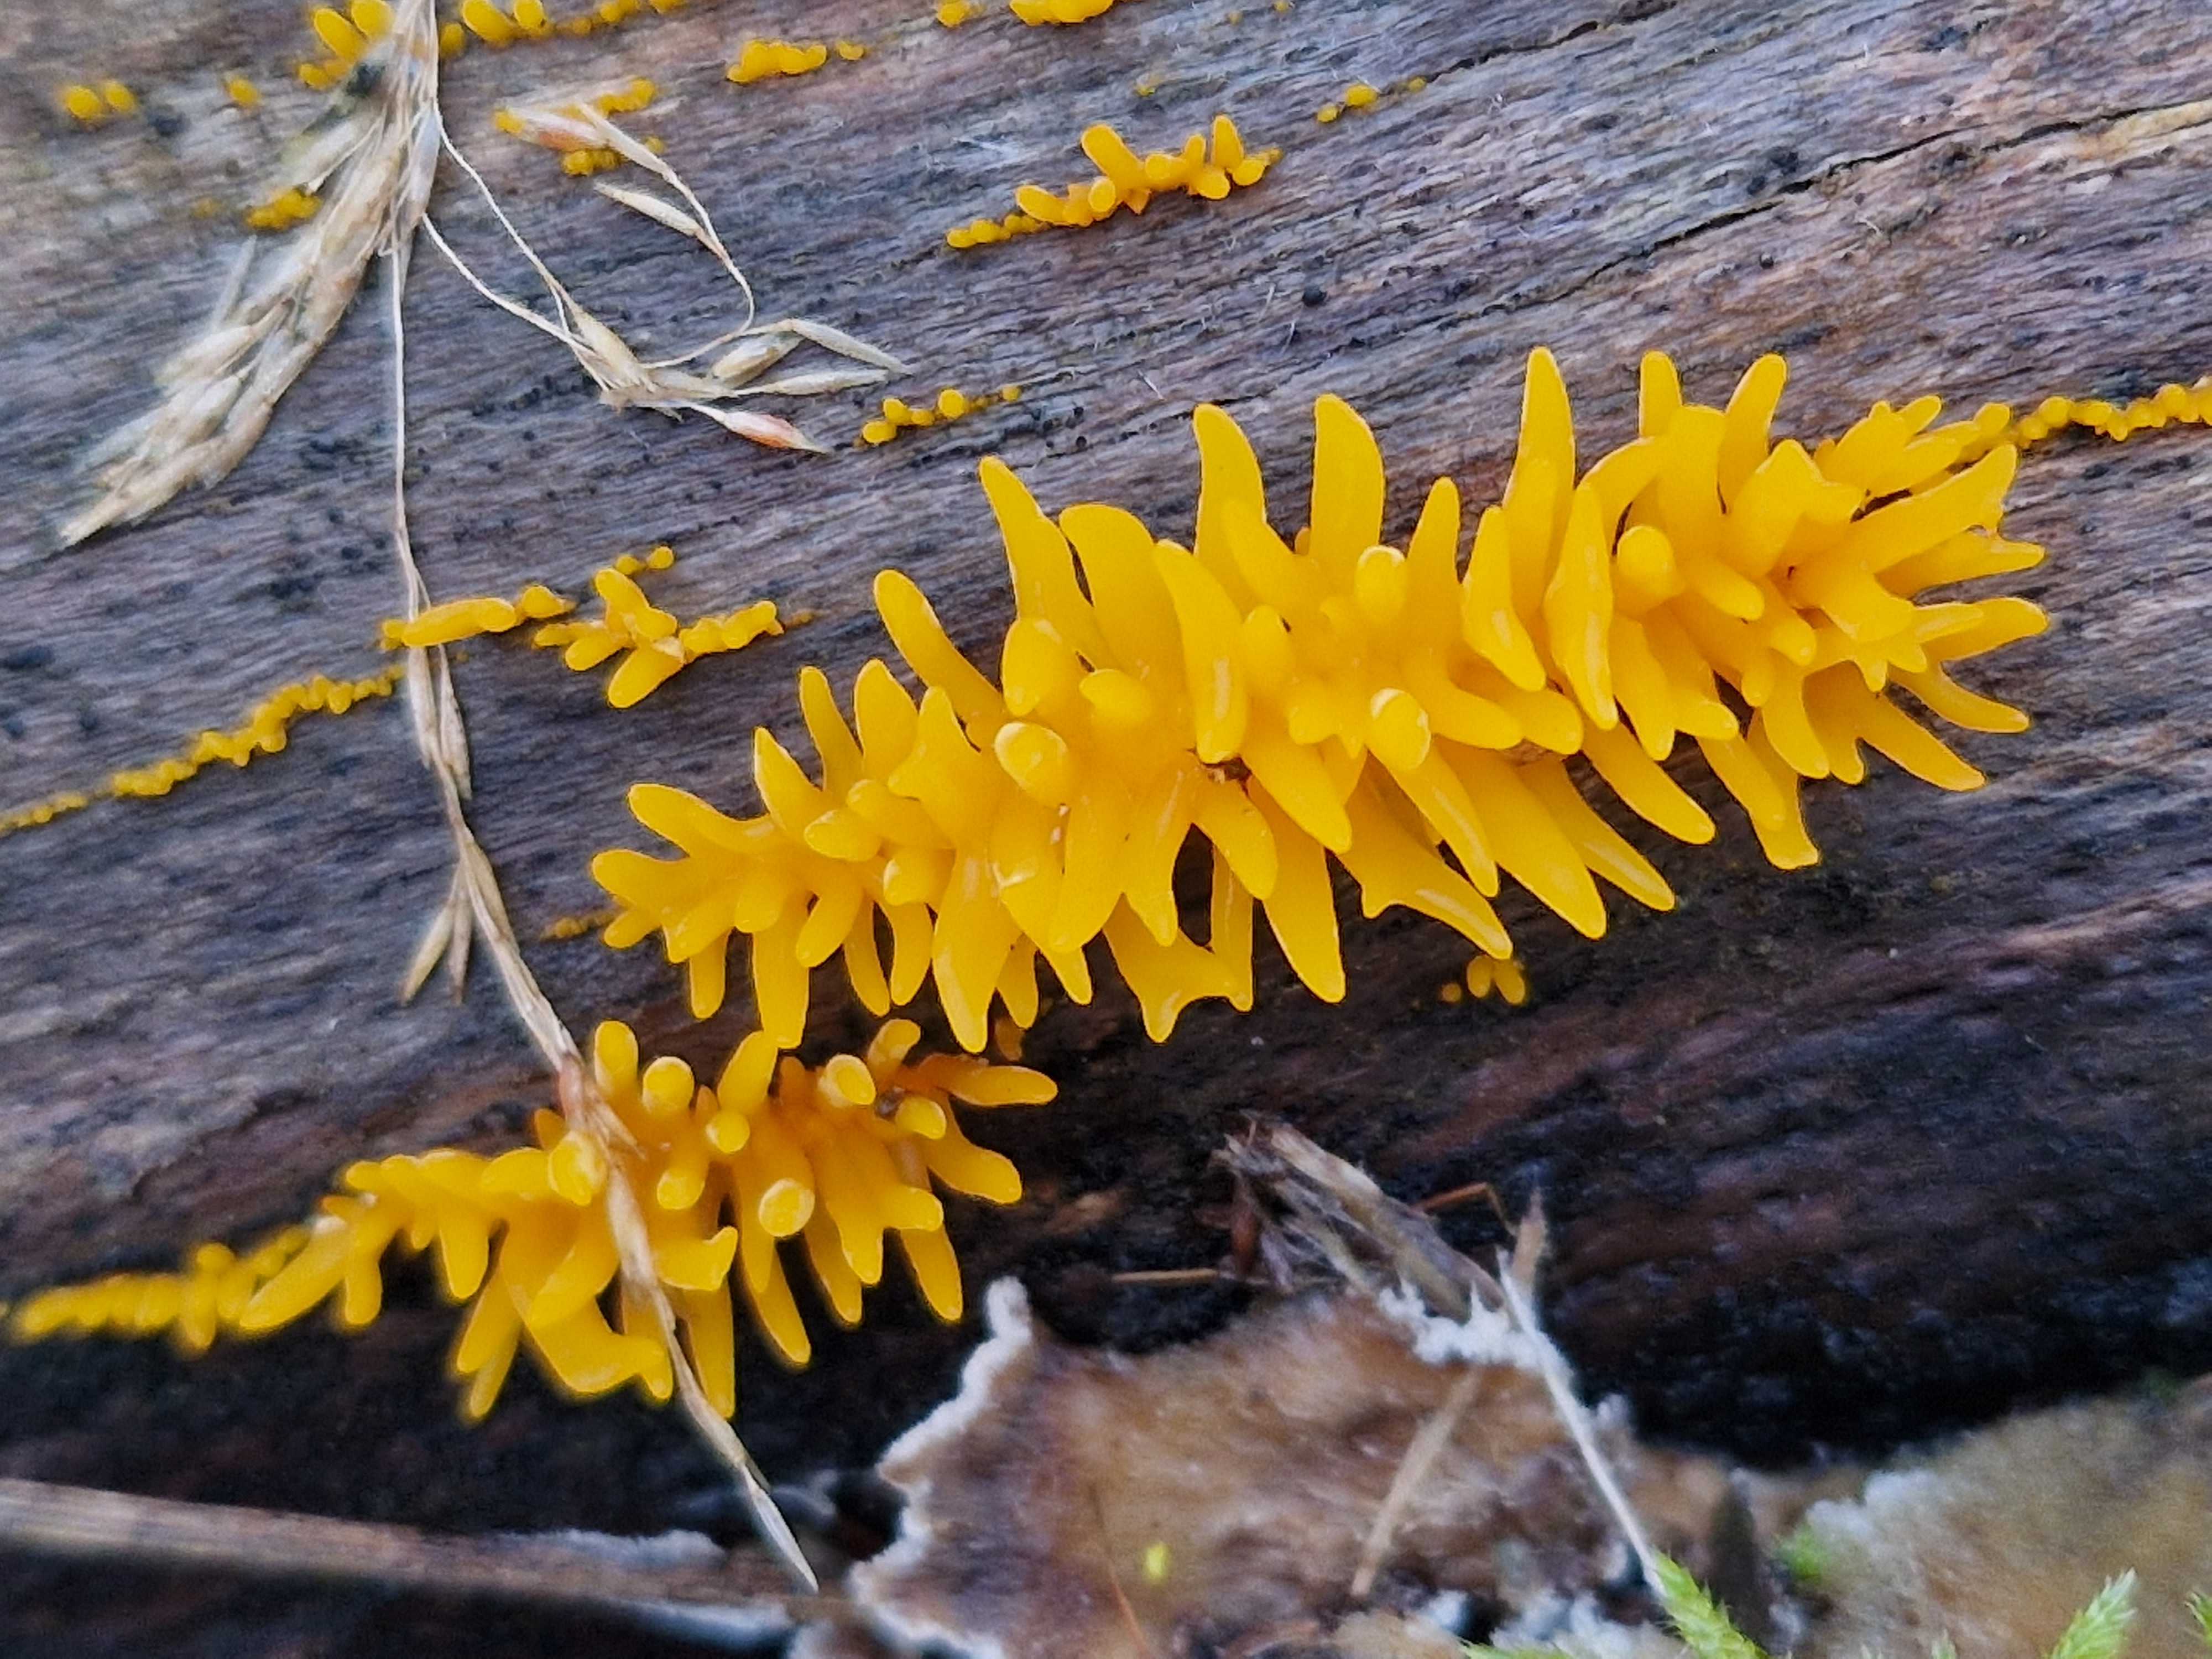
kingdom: Fungi
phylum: Basidiomycota
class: Dacrymycetes
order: Dacrymycetales
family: Dacrymycetaceae
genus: Calocera
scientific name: Calocera cornea
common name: liden guldgaffel
